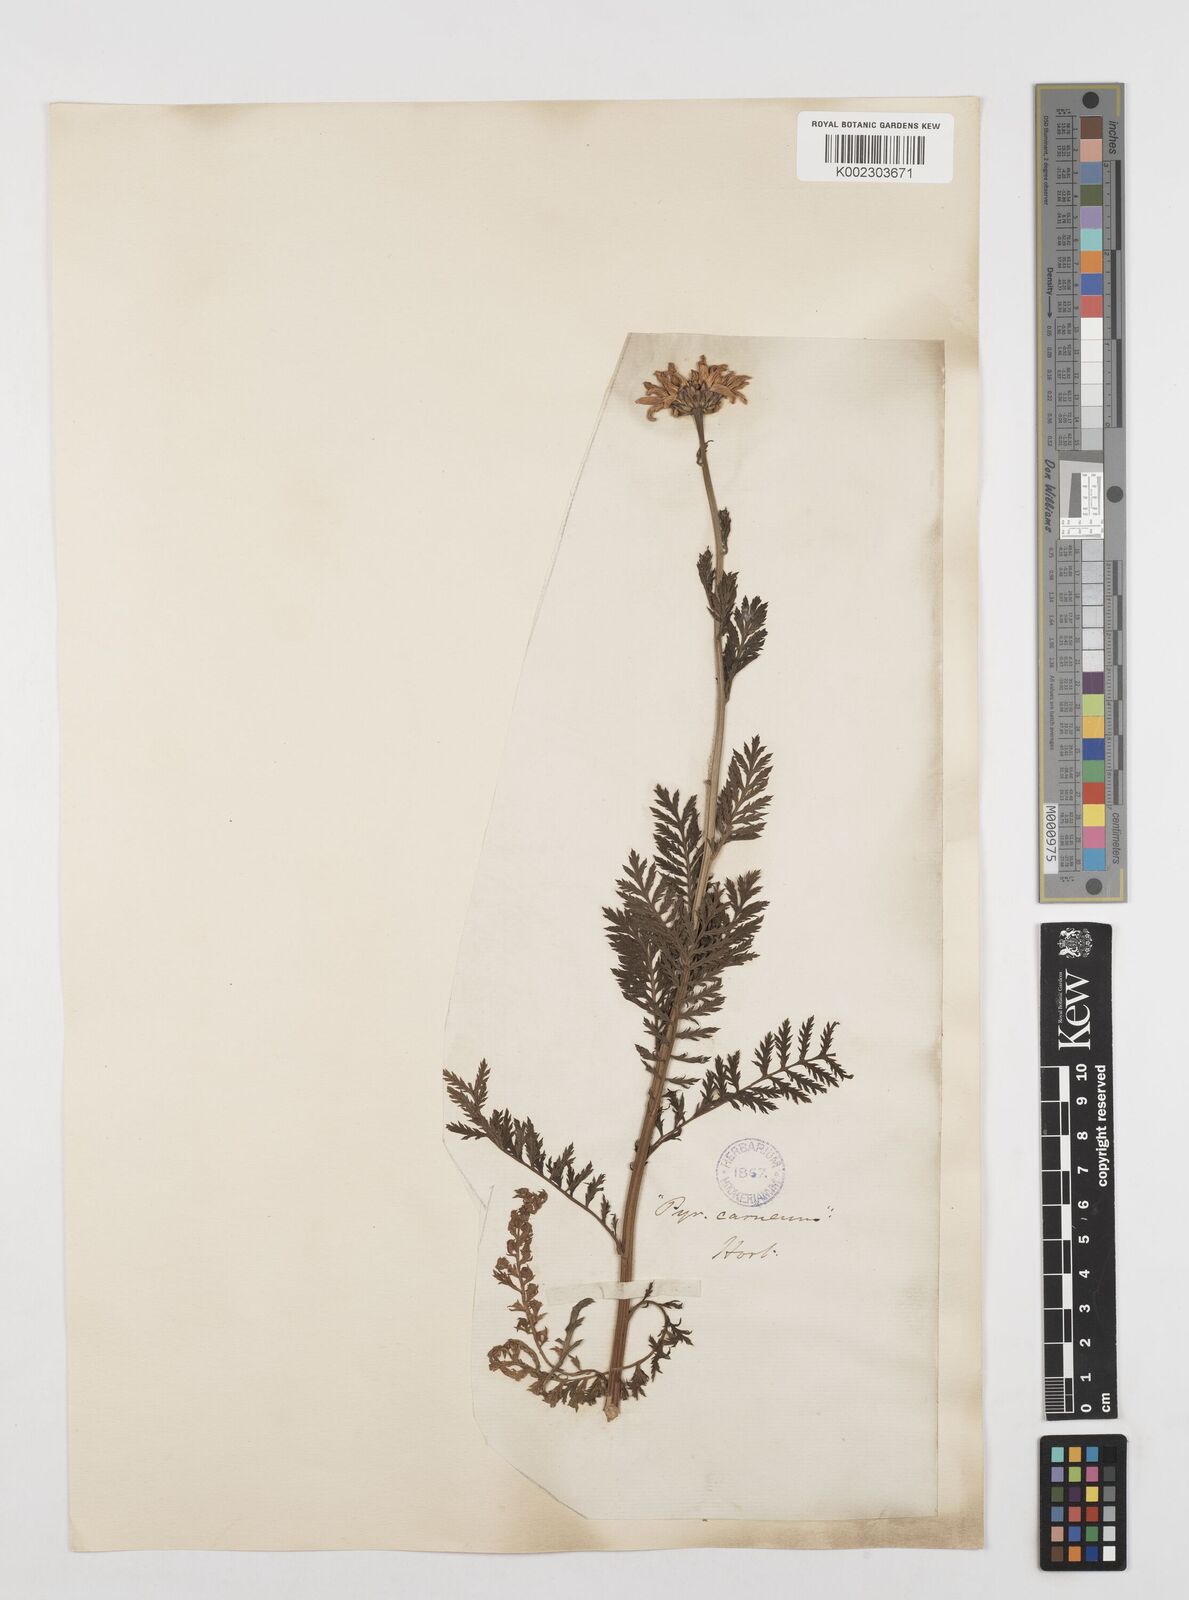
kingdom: Plantae
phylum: Tracheophyta
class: Magnoliopsida
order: Asterales
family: Asteraceae
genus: Tanacetum
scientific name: Tanacetum coccineum
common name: Pyrethum daisy
